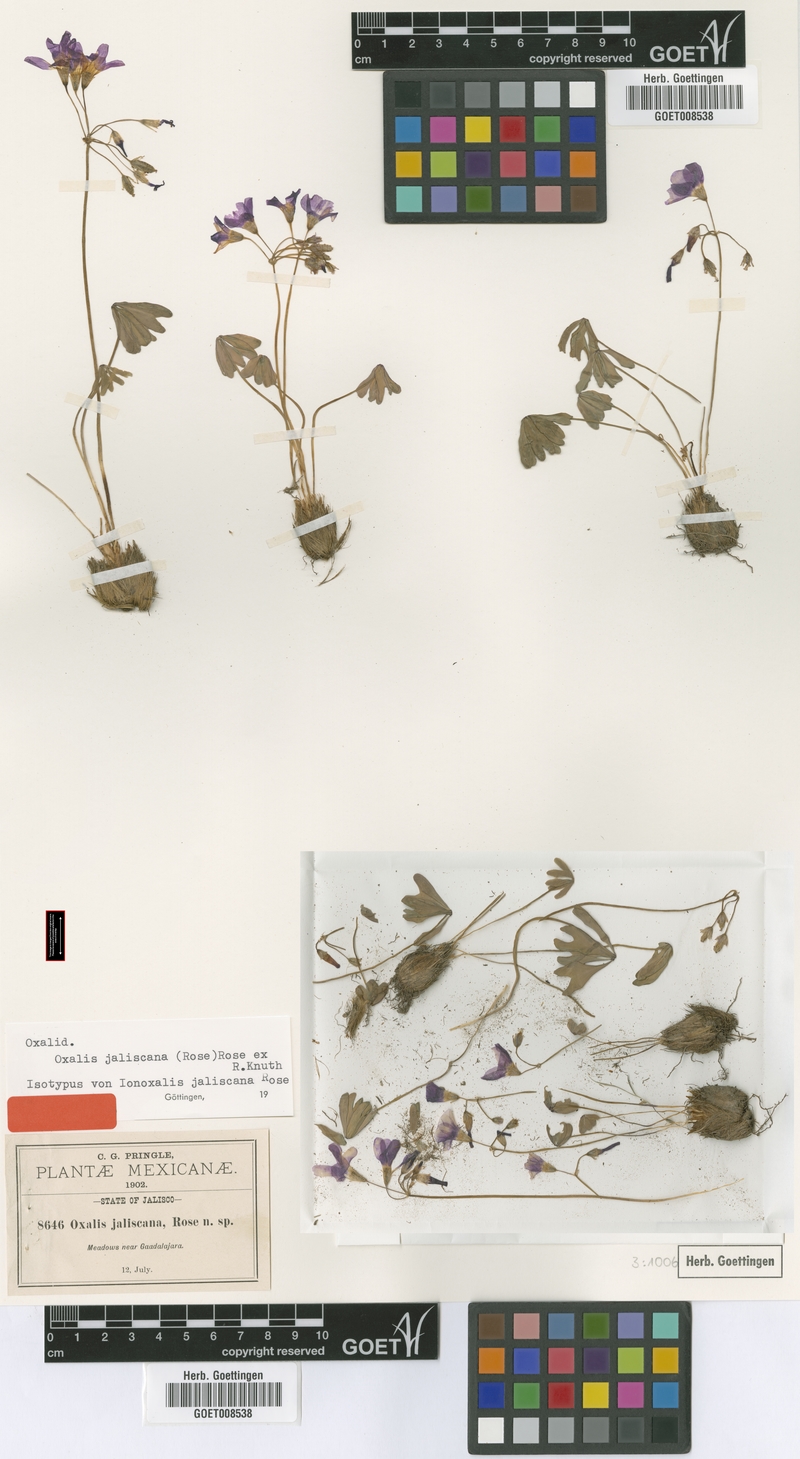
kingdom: Plantae
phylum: Tracheophyta
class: Magnoliopsida
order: Oxalidales
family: Oxalidaceae
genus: Oxalis
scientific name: Oxalis decaphylla
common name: Ten-leaved pink-sorrel
